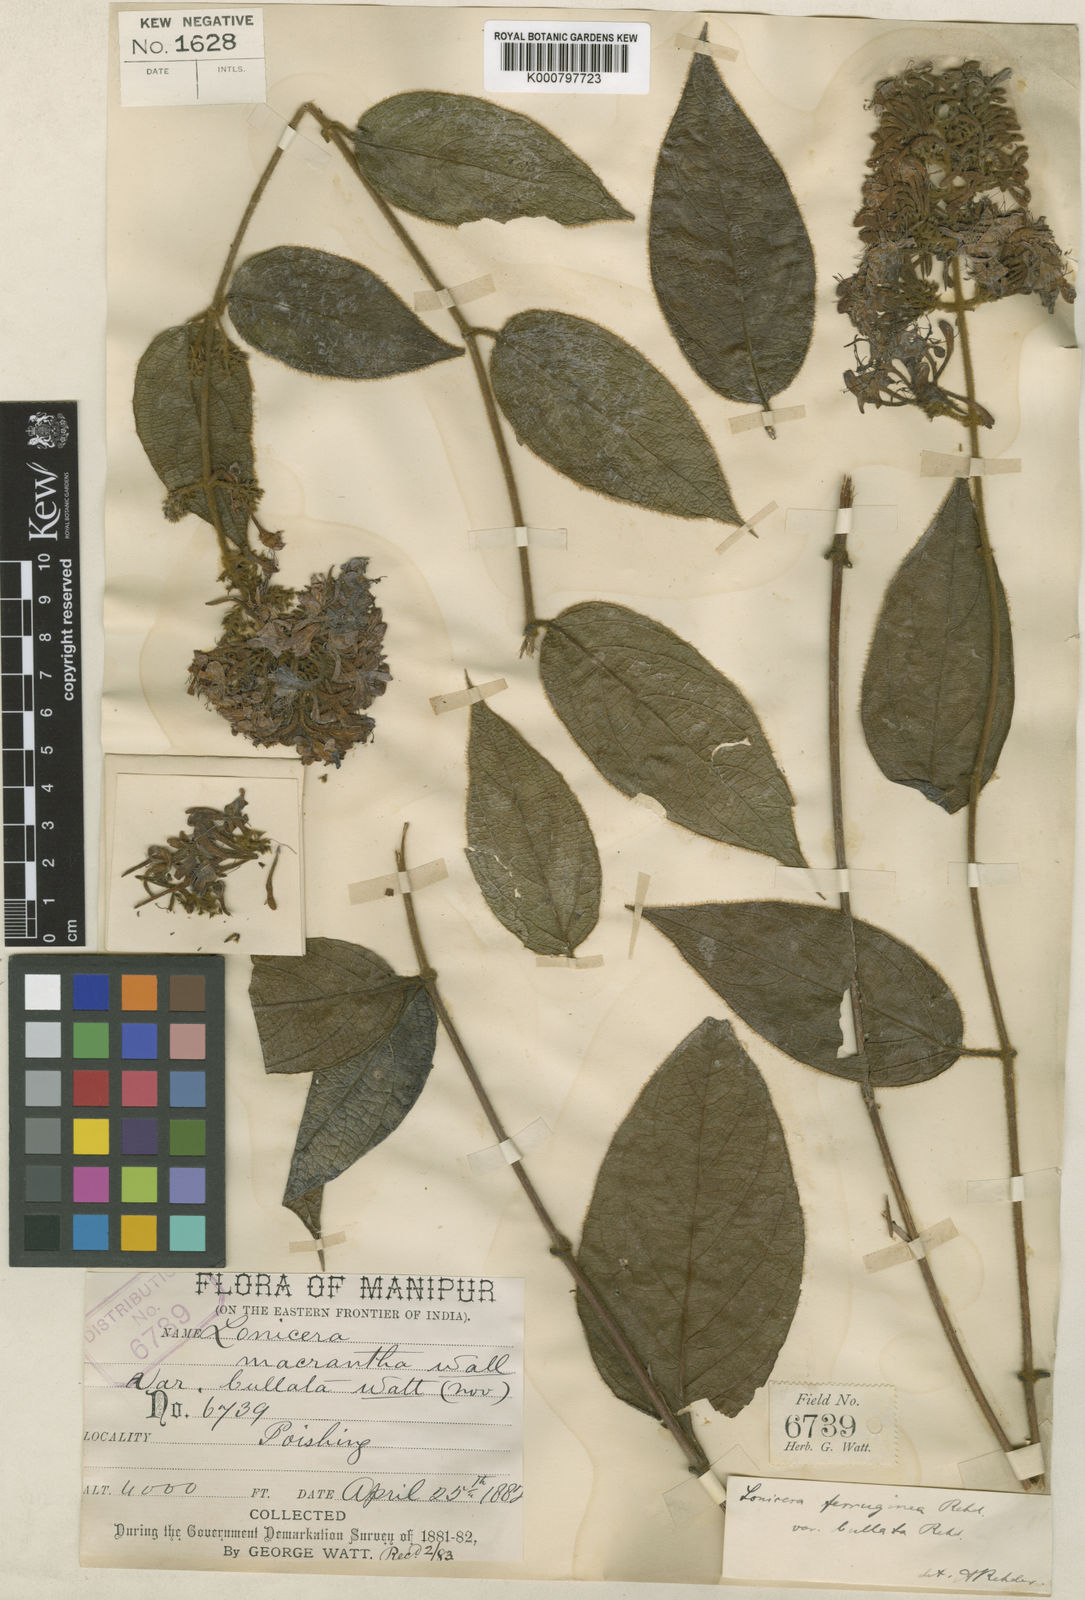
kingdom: Plantae
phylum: Tracheophyta
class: Magnoliopsida
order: Dipsacales
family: Caprifoliaceae
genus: Lonicera
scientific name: Lonicera ferruginea
